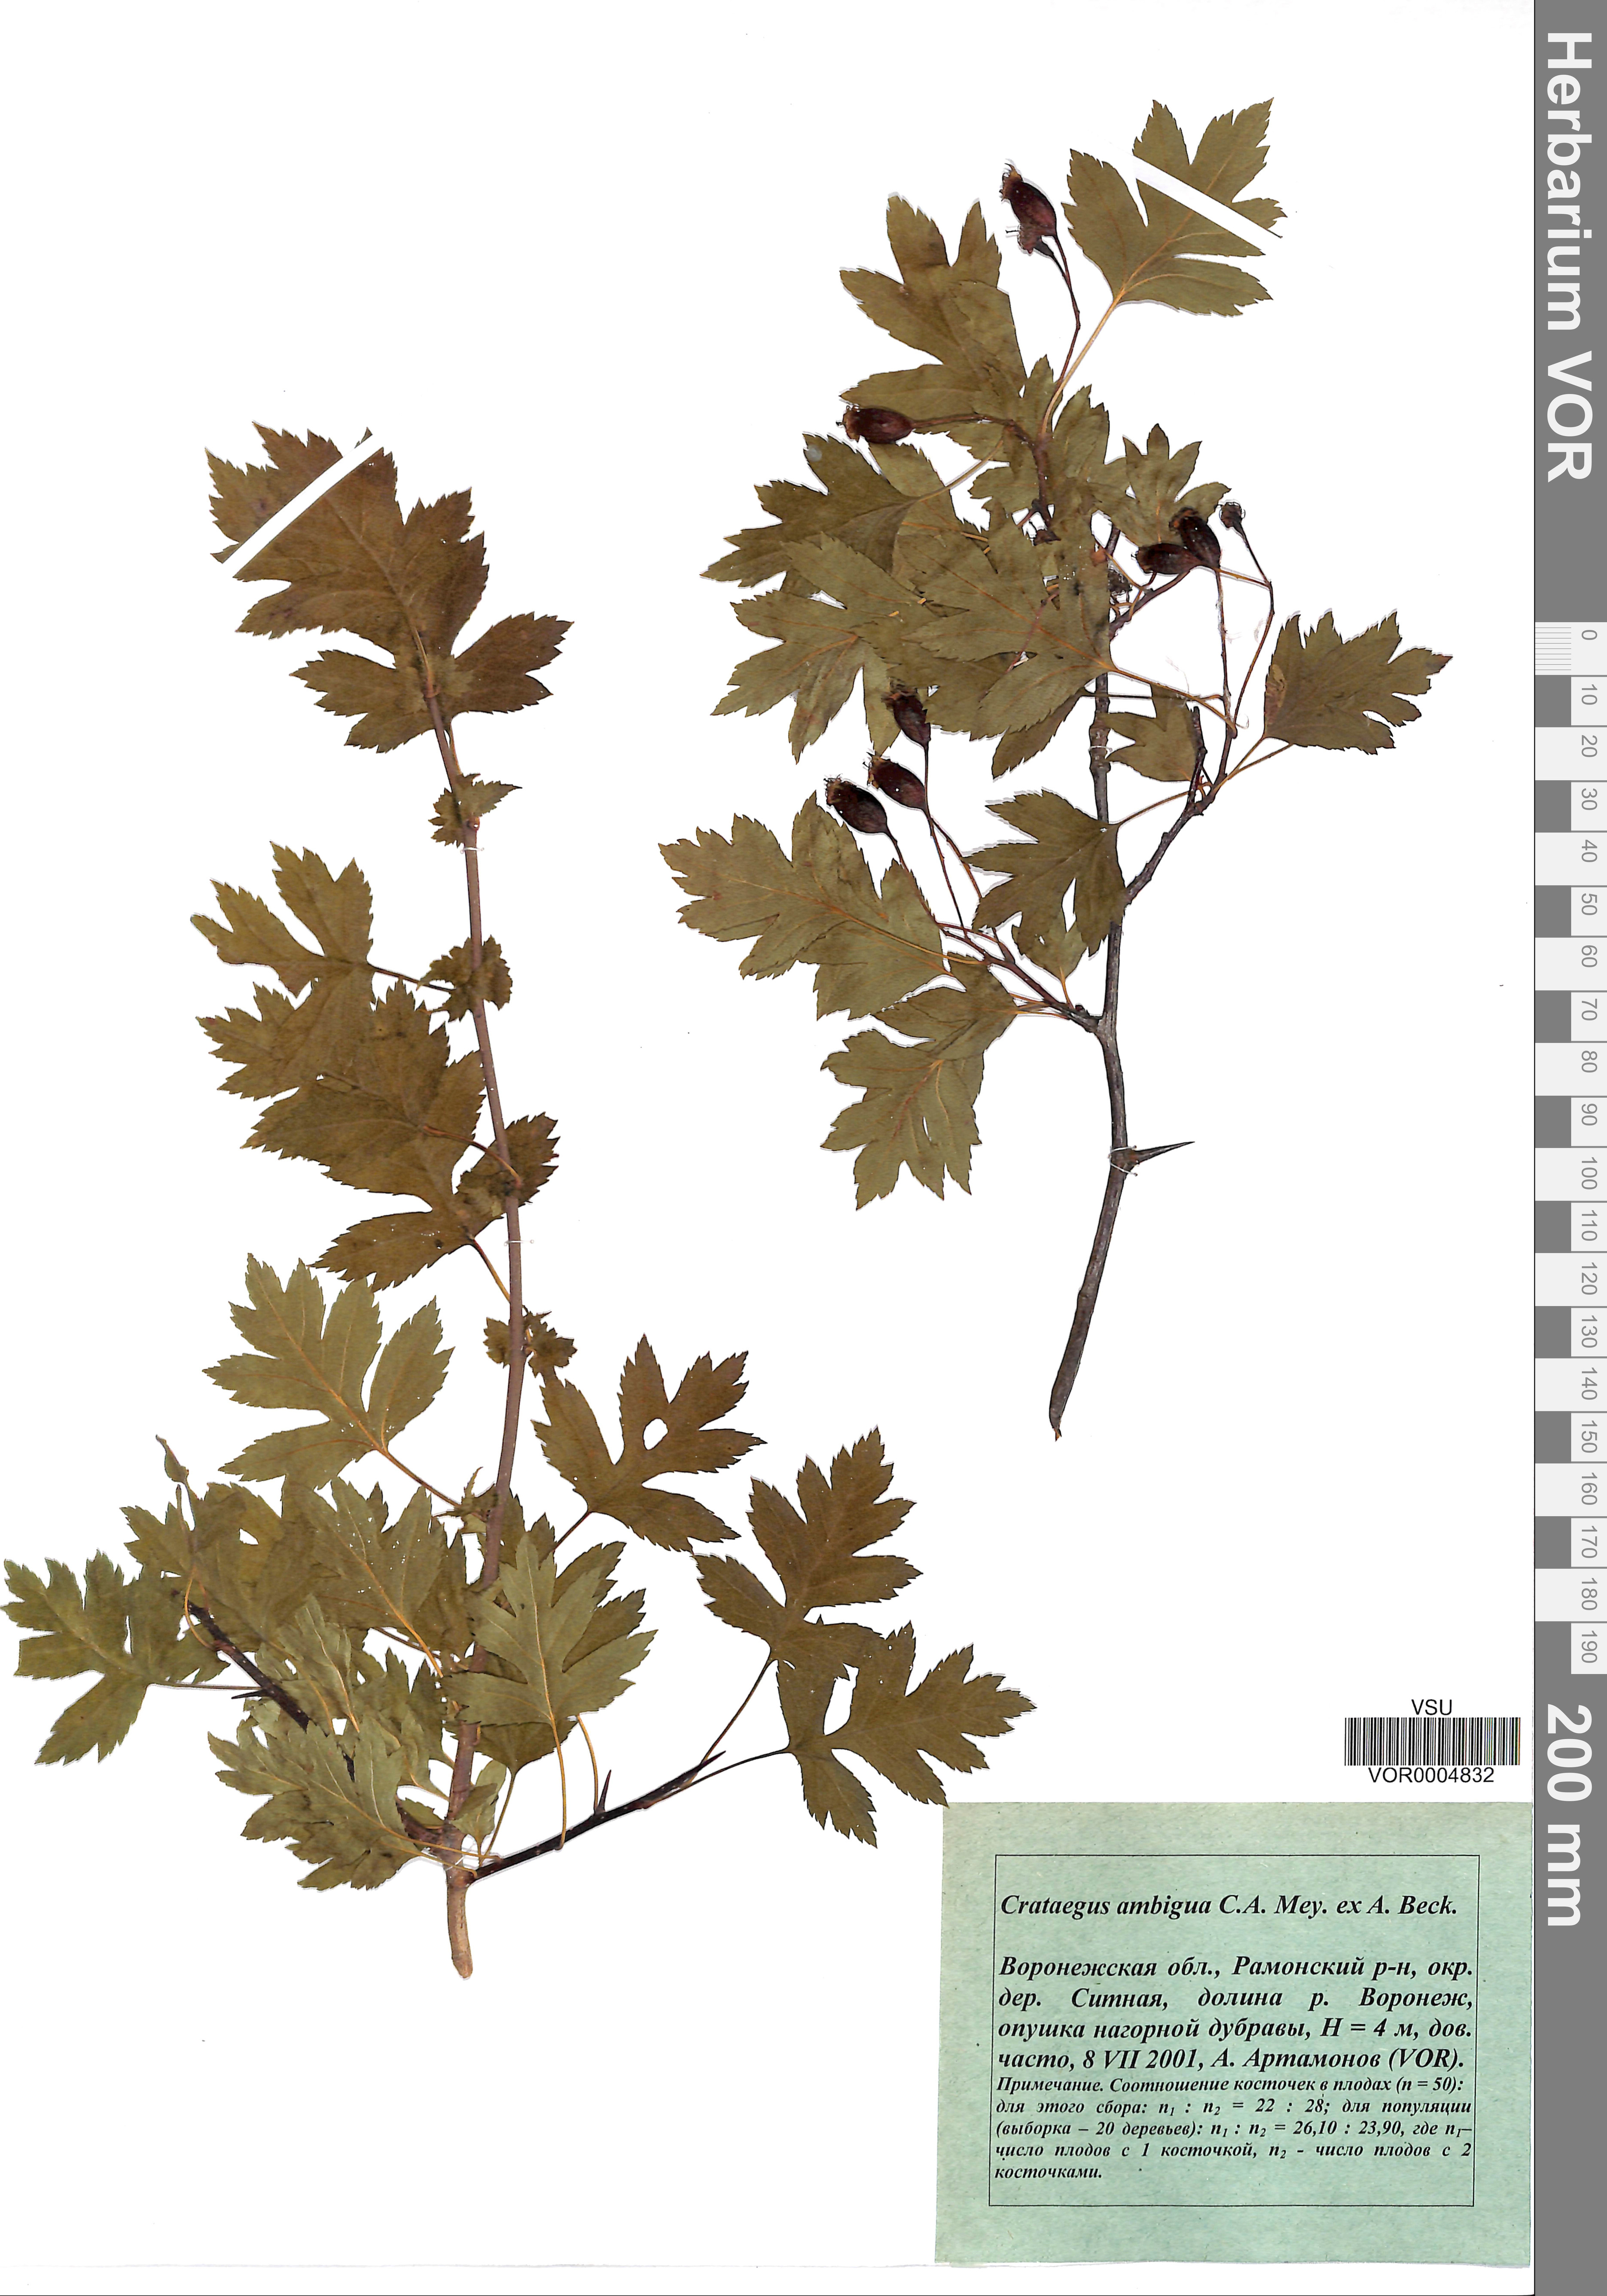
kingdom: Plantae
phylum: Tracheophyta
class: Magnoliopsida
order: Rosales
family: Rosaceae
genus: Crataegus
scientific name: Crataegus ambigua
